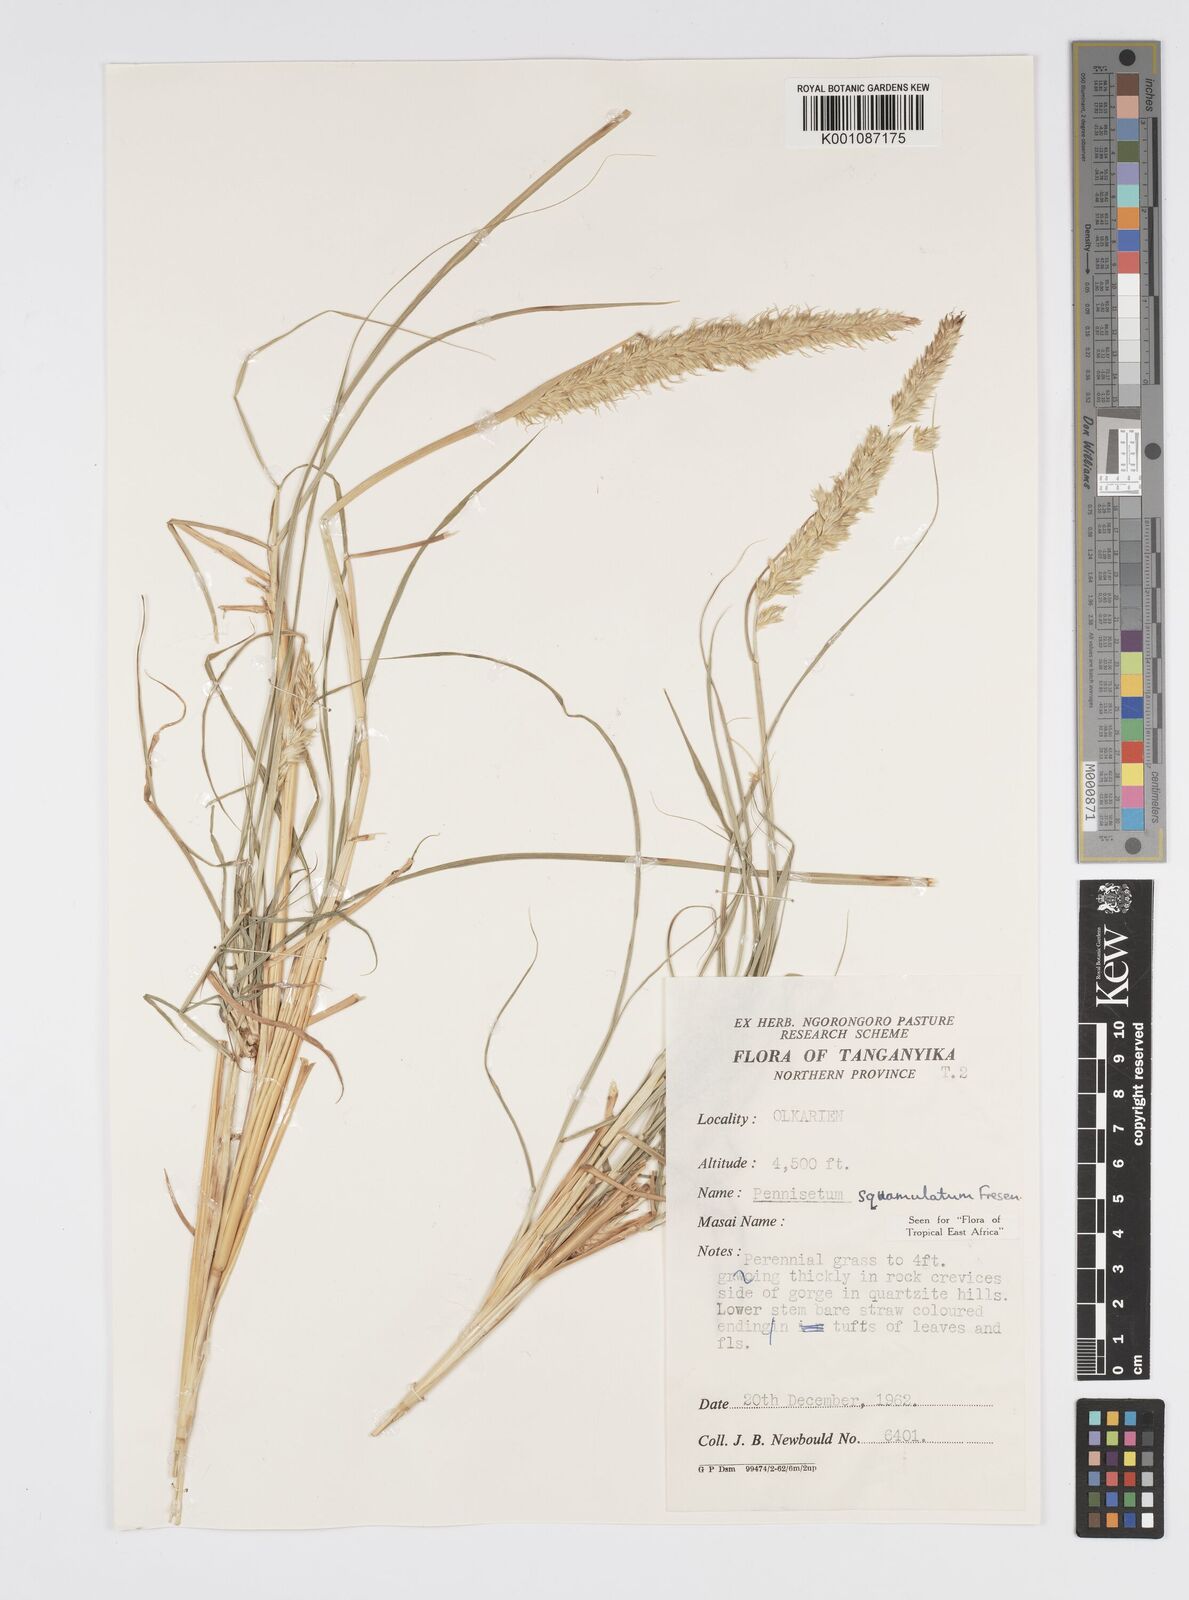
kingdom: Plantae
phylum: Tracheophyta
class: Liliopsida
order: Poales
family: Poaceae
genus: Cenchrus
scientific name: Cenchrus squamulatus
